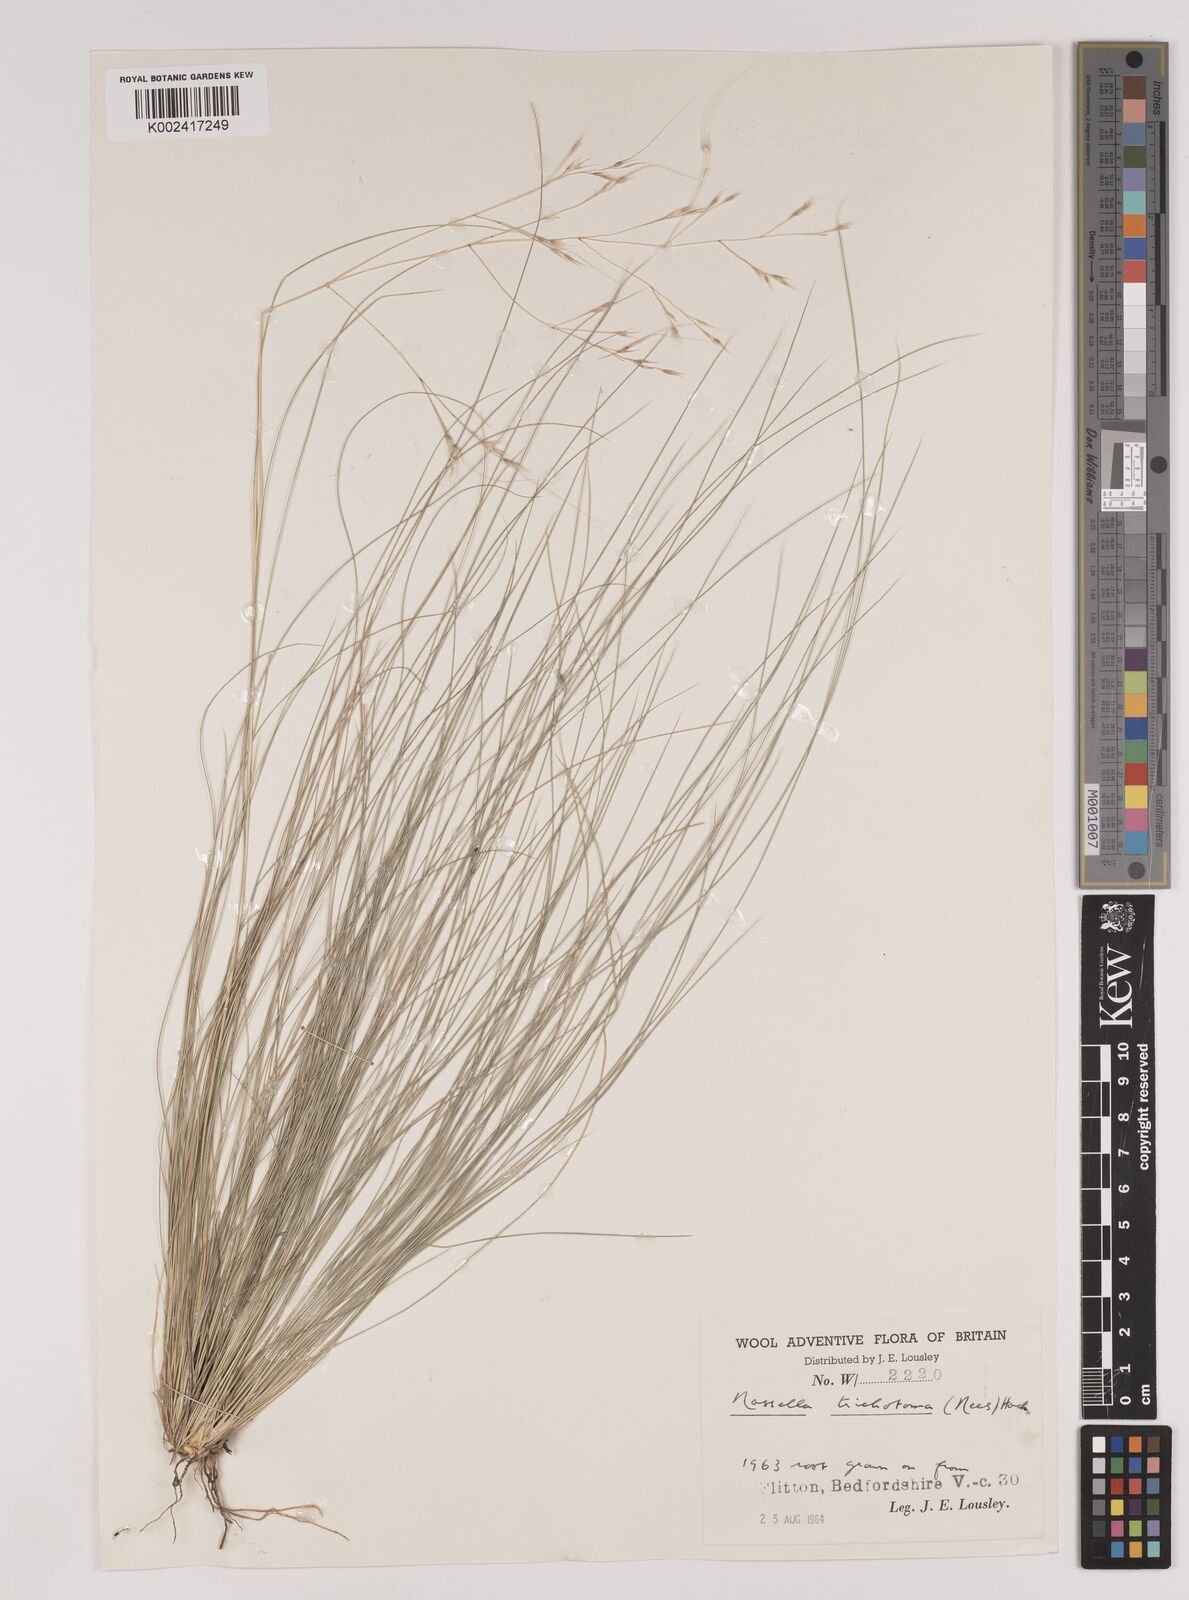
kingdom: Plantae
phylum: Tracheophyta
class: Liliopsida
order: Poales
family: Poaceae
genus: Nassella
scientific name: Nassella trichotoma
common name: Serrated tussock grass
